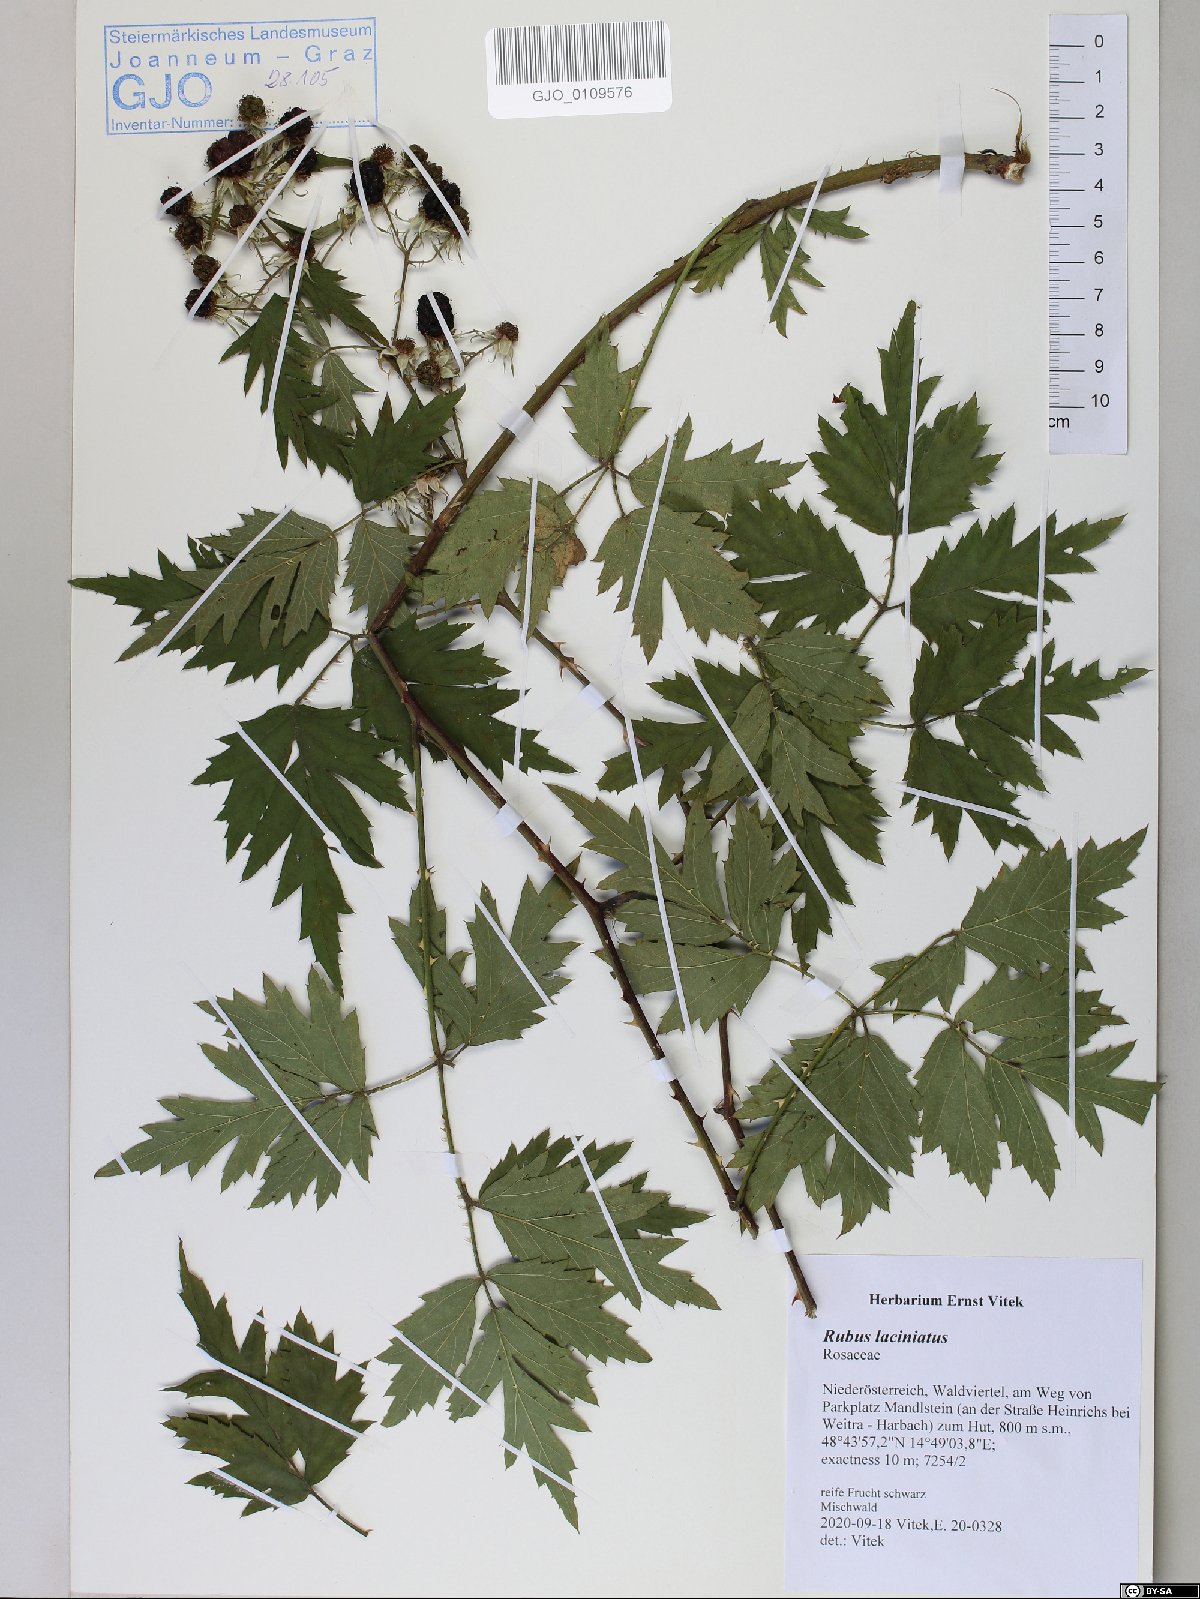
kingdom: Plantae
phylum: Tracheophyta
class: Magnoliopsida
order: Rosales
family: Rosaceae
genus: Rubus
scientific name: Rubus laciniatus
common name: Evergreen blackberry
